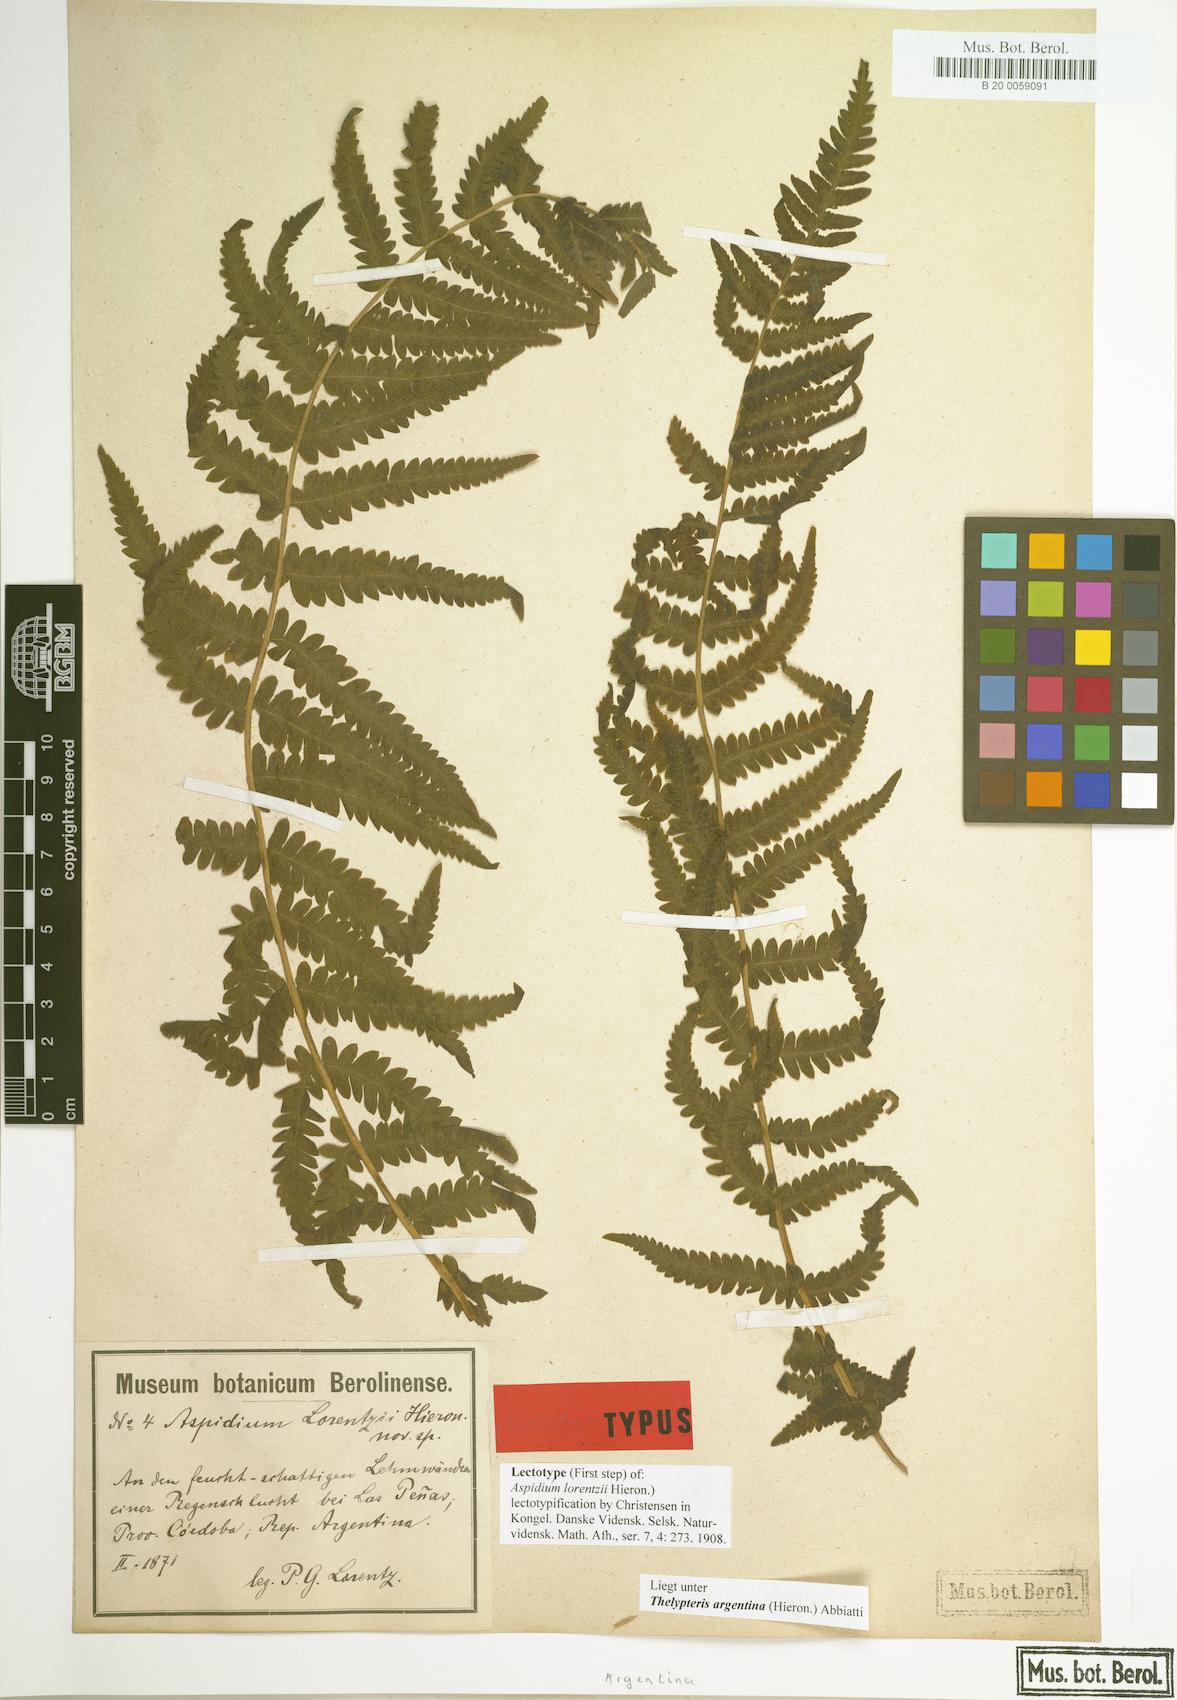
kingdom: Plantae
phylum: Tracheophyta
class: Polypodiopsida
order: Polypodiales
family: Thelypteridaceae
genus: Amauropelta
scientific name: Amauropelta argentina
